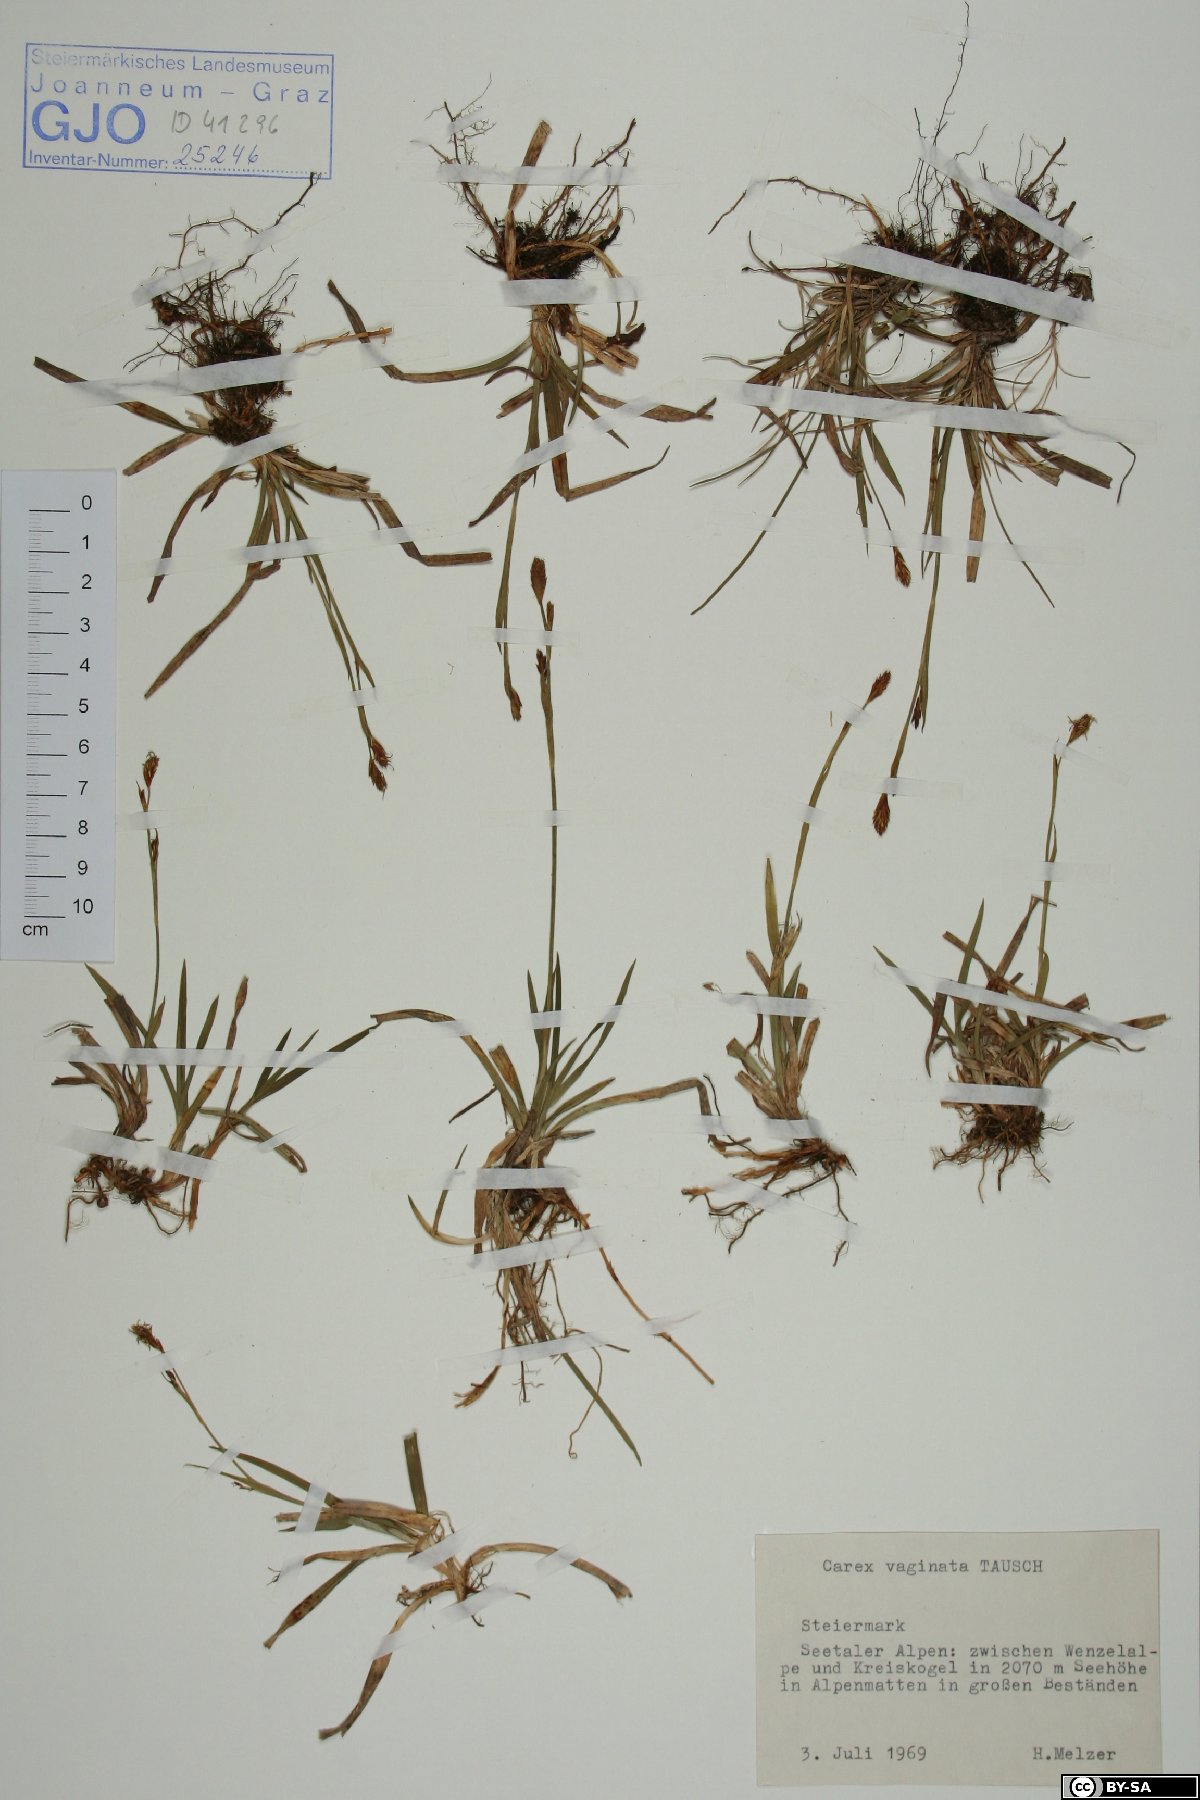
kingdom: Plantae
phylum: Tracheophyta
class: Liliopsida
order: Poales
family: Cyperaceae
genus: Carex
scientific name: Carex vaginata
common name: Sheathed sedge
